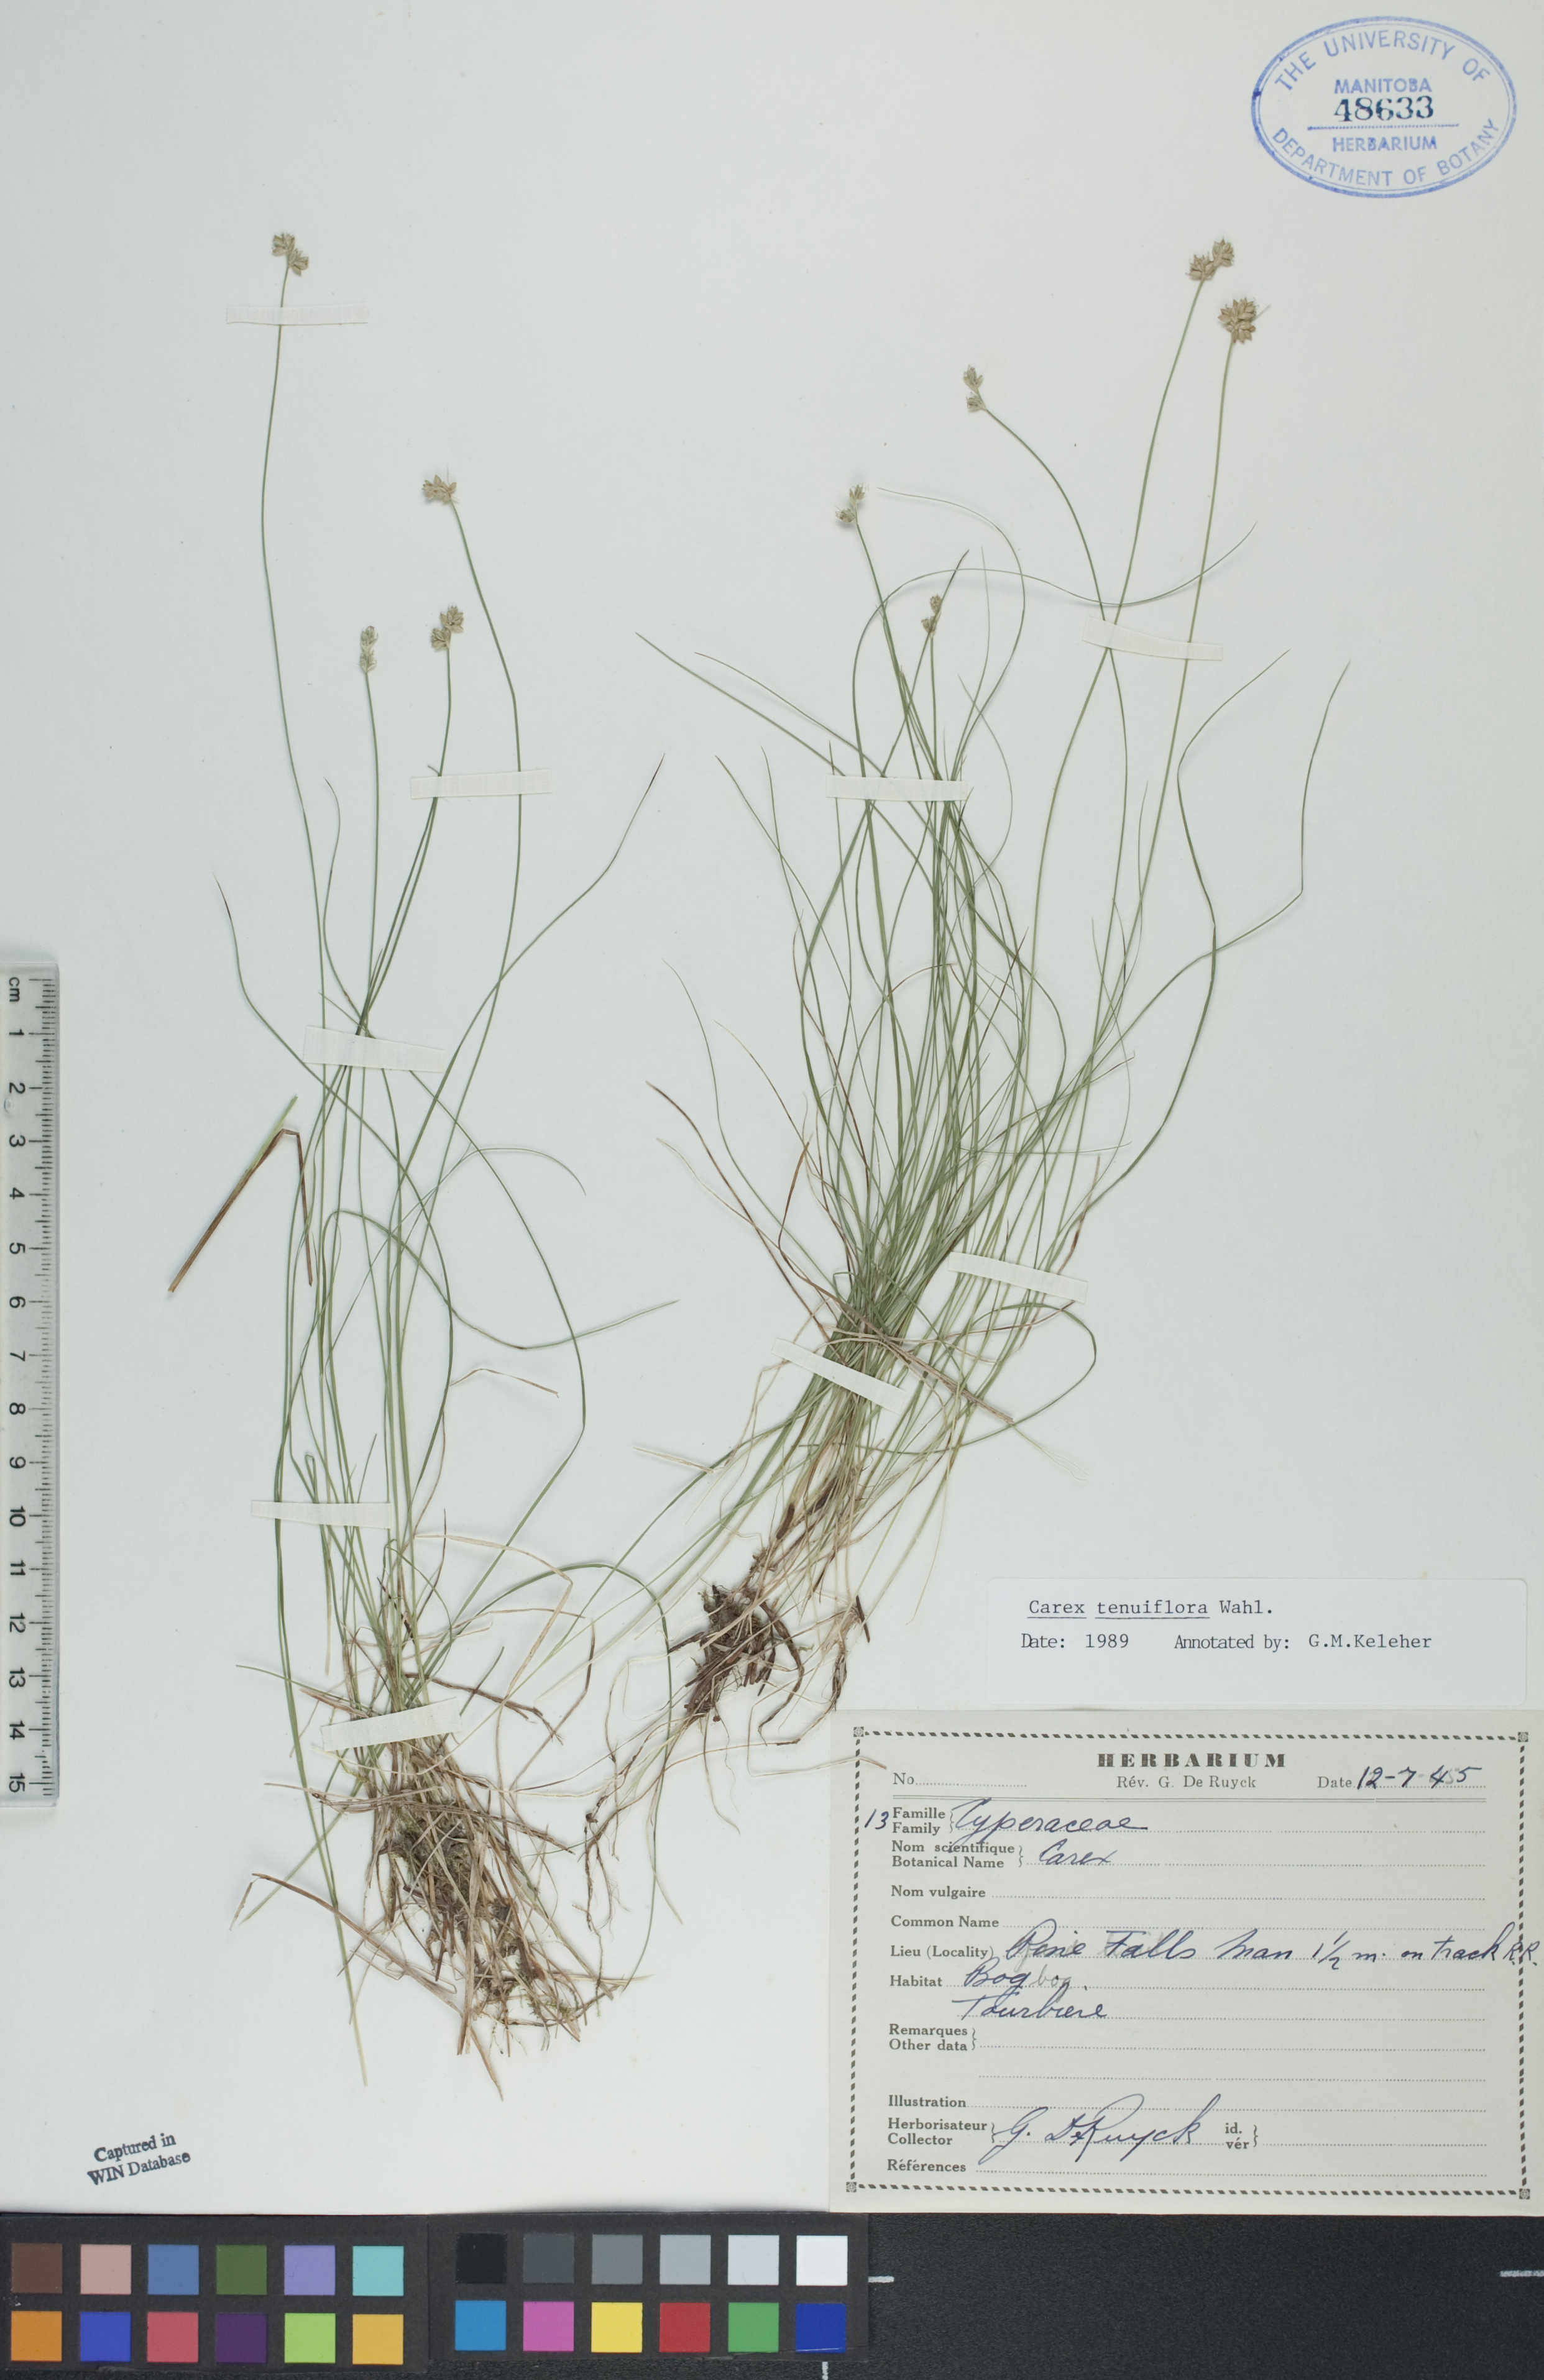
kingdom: Plantae
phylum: Tracheophyta
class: Liliopsida
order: Poales
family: Cyperaceae
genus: Carex
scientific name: Carex tenera
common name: Broad-fruited sedge
